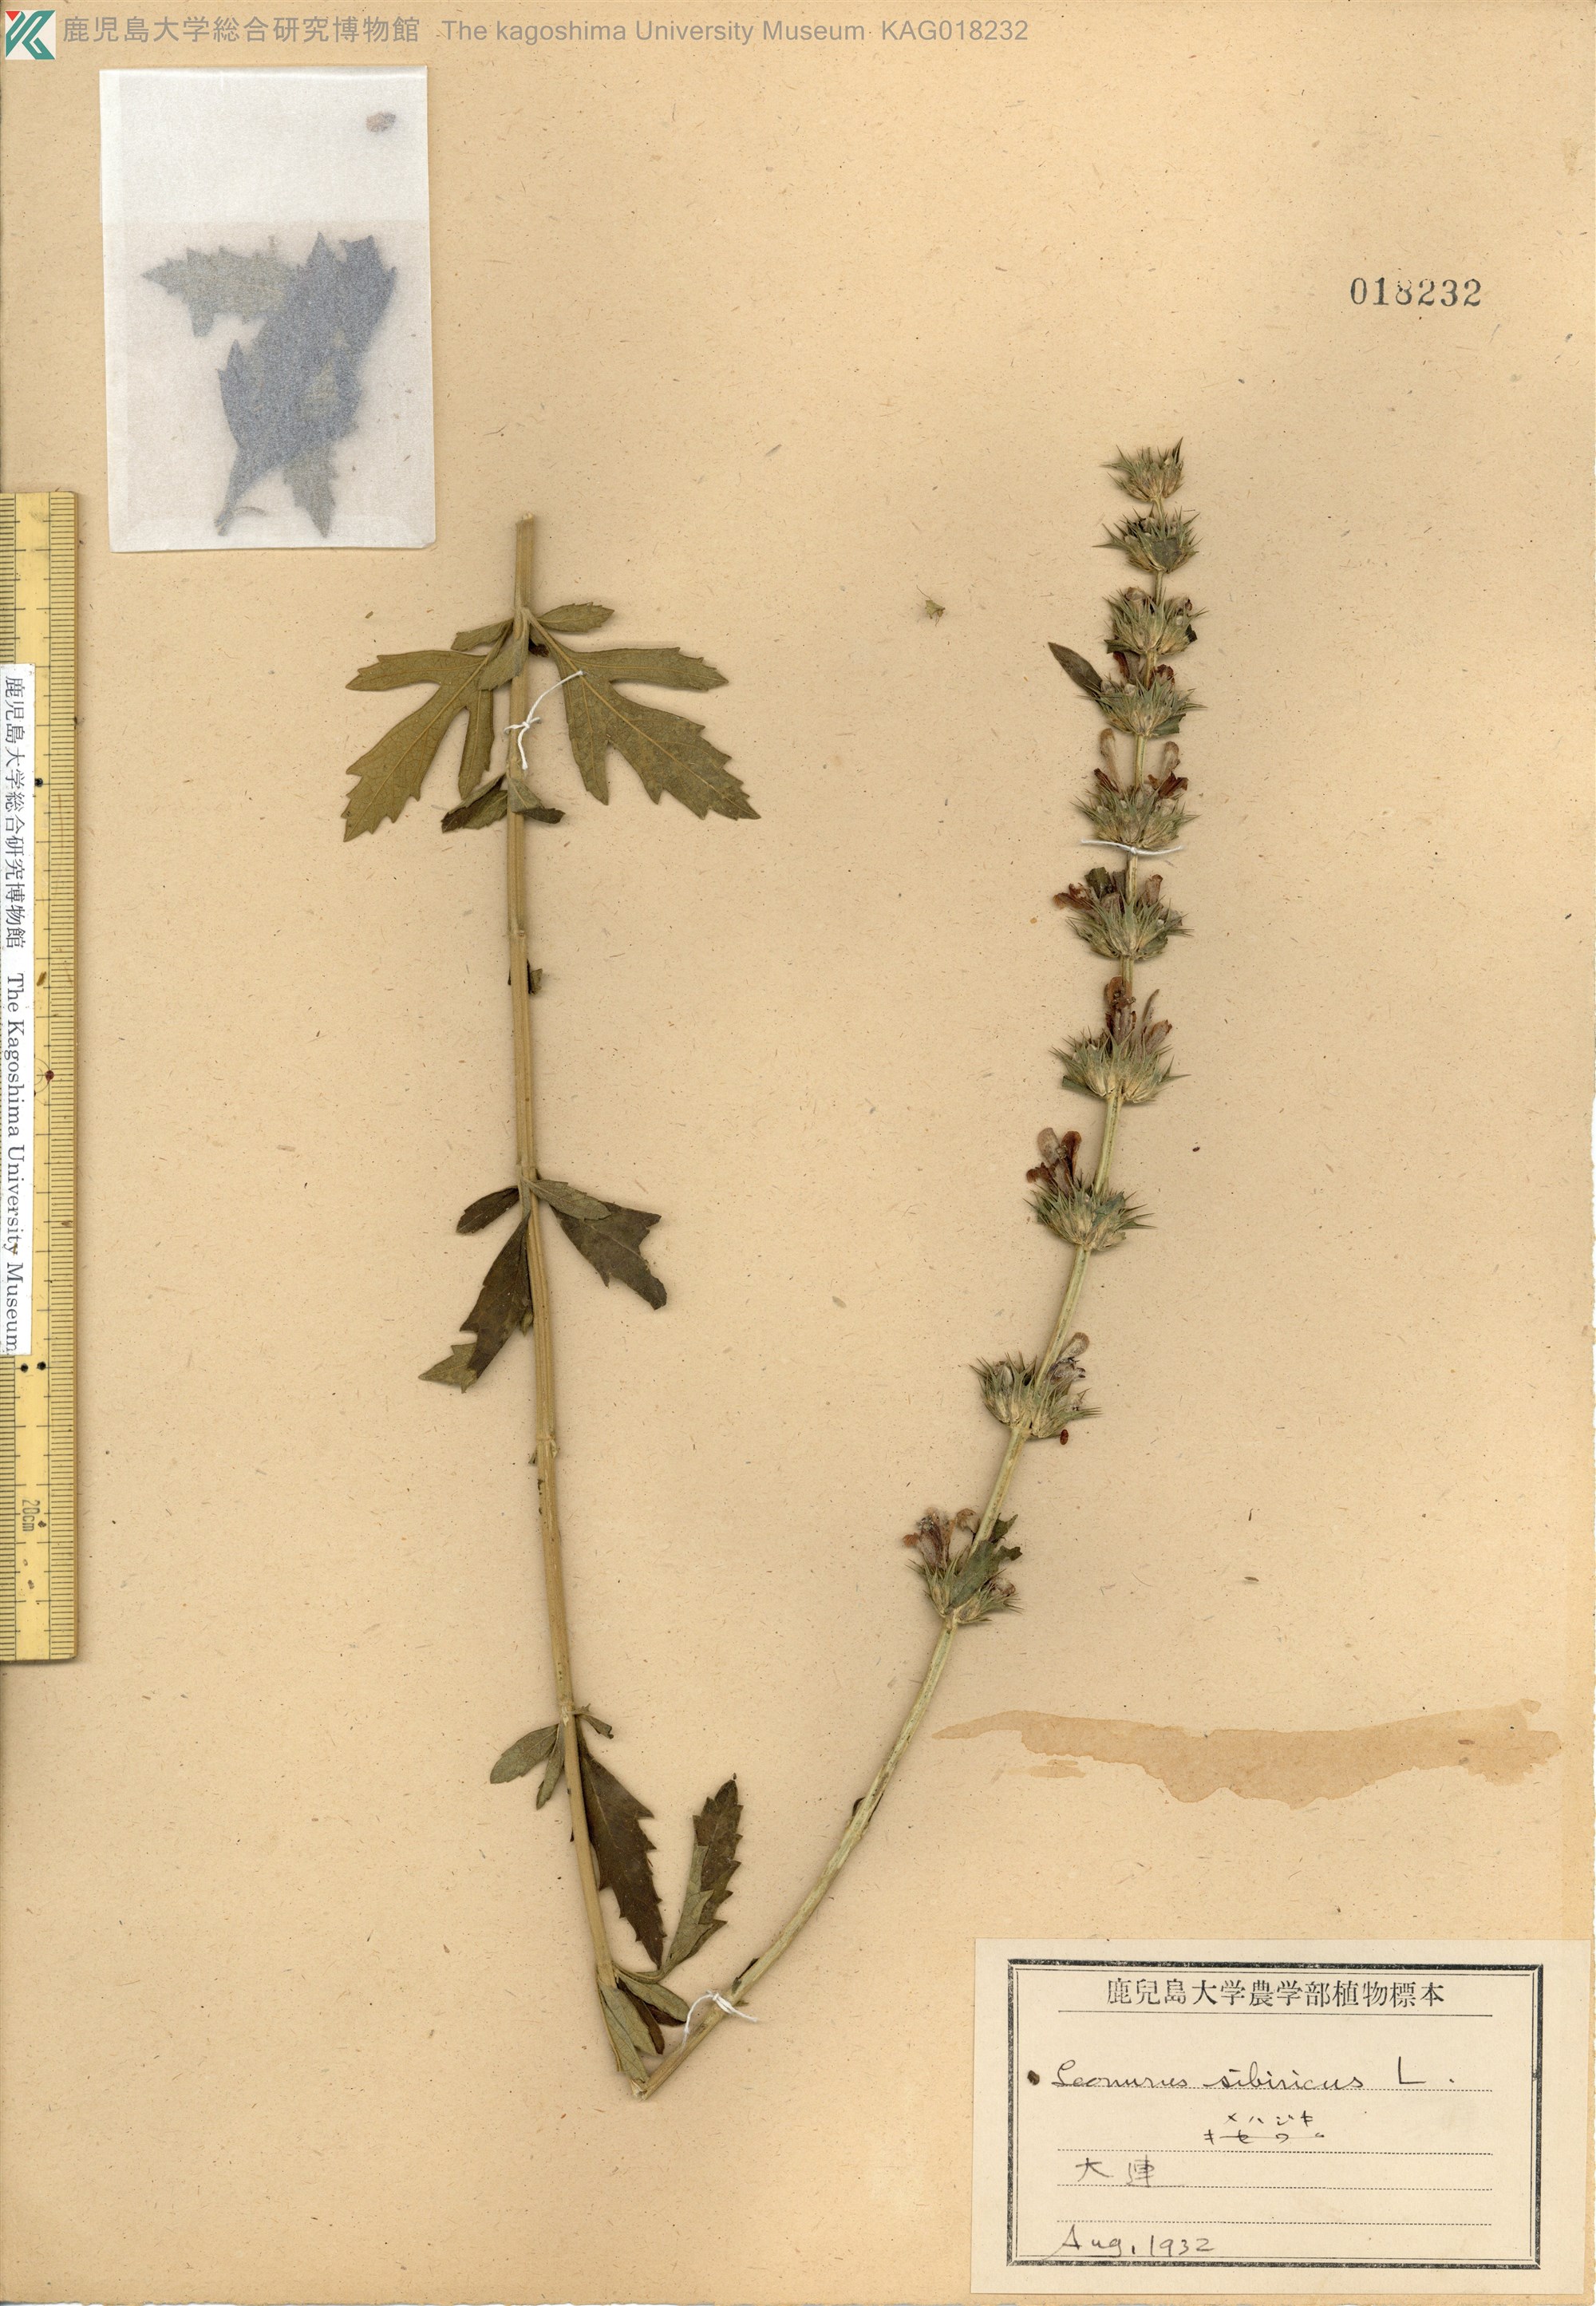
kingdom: Plantae
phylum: Tracheophyta
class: Magnoliopsida
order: Lamiales
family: Lamiaceae
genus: Leonurus
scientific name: Leonurus macranthus
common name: キセワタ
